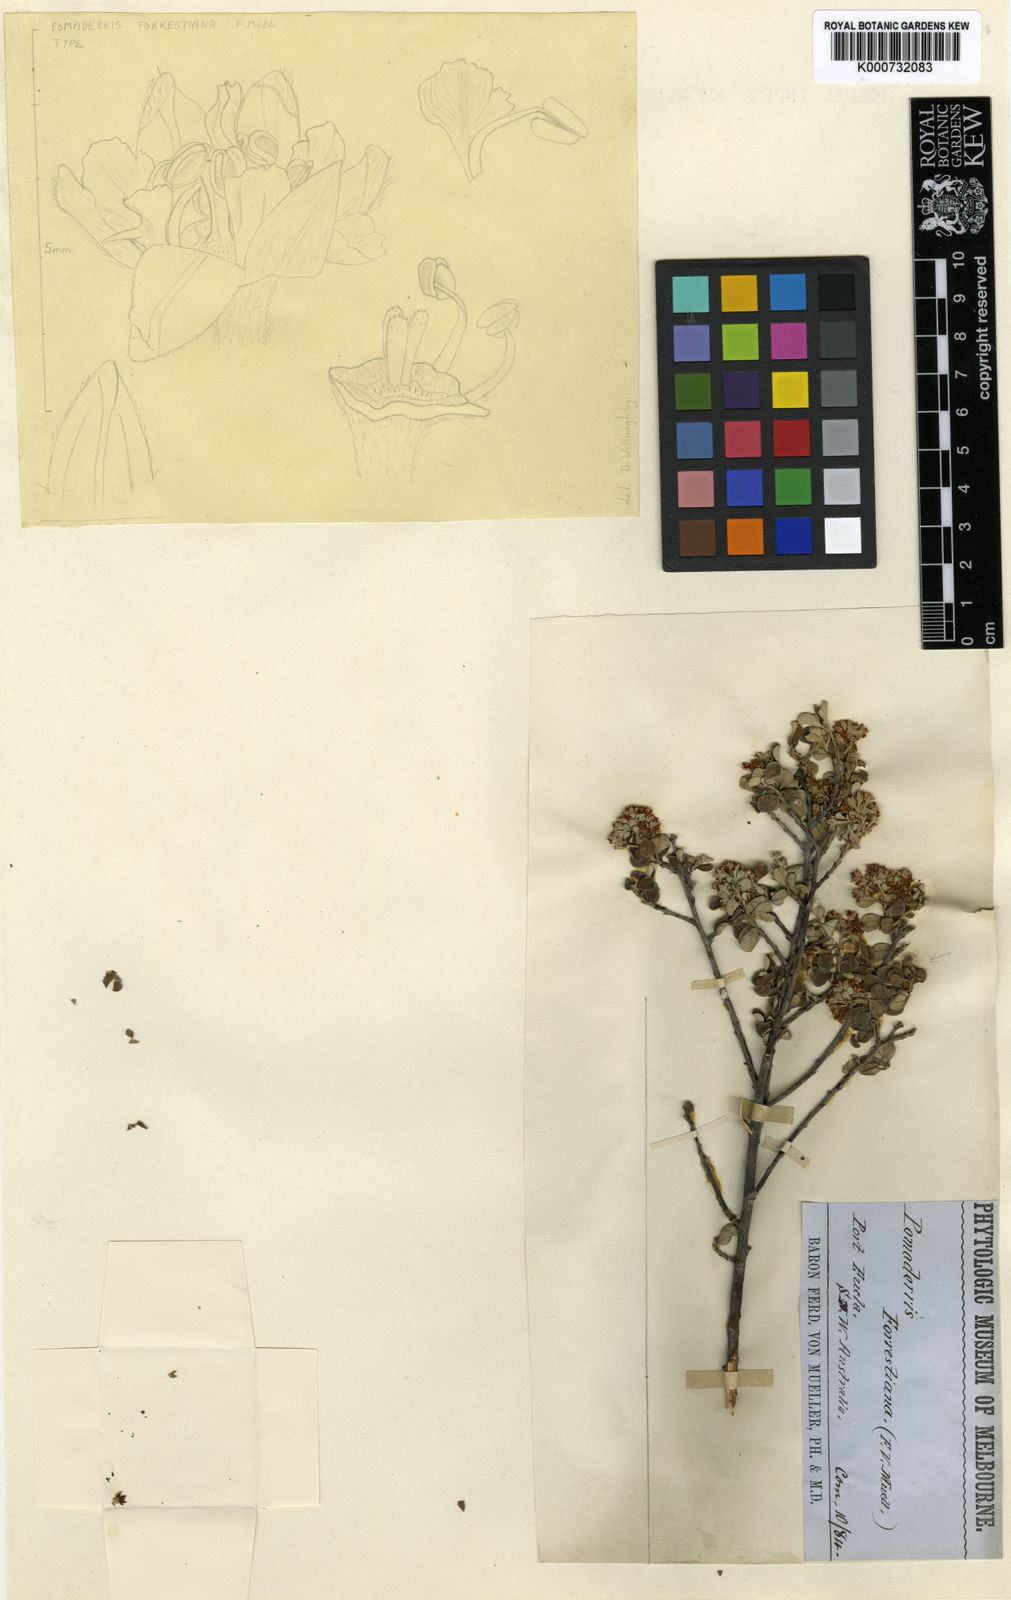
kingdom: Plantae
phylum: Tracheophyta
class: Magnoliopsida
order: Rosales
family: Rhamnaceae
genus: Pomaderris
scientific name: Pomaderris forrestiana
